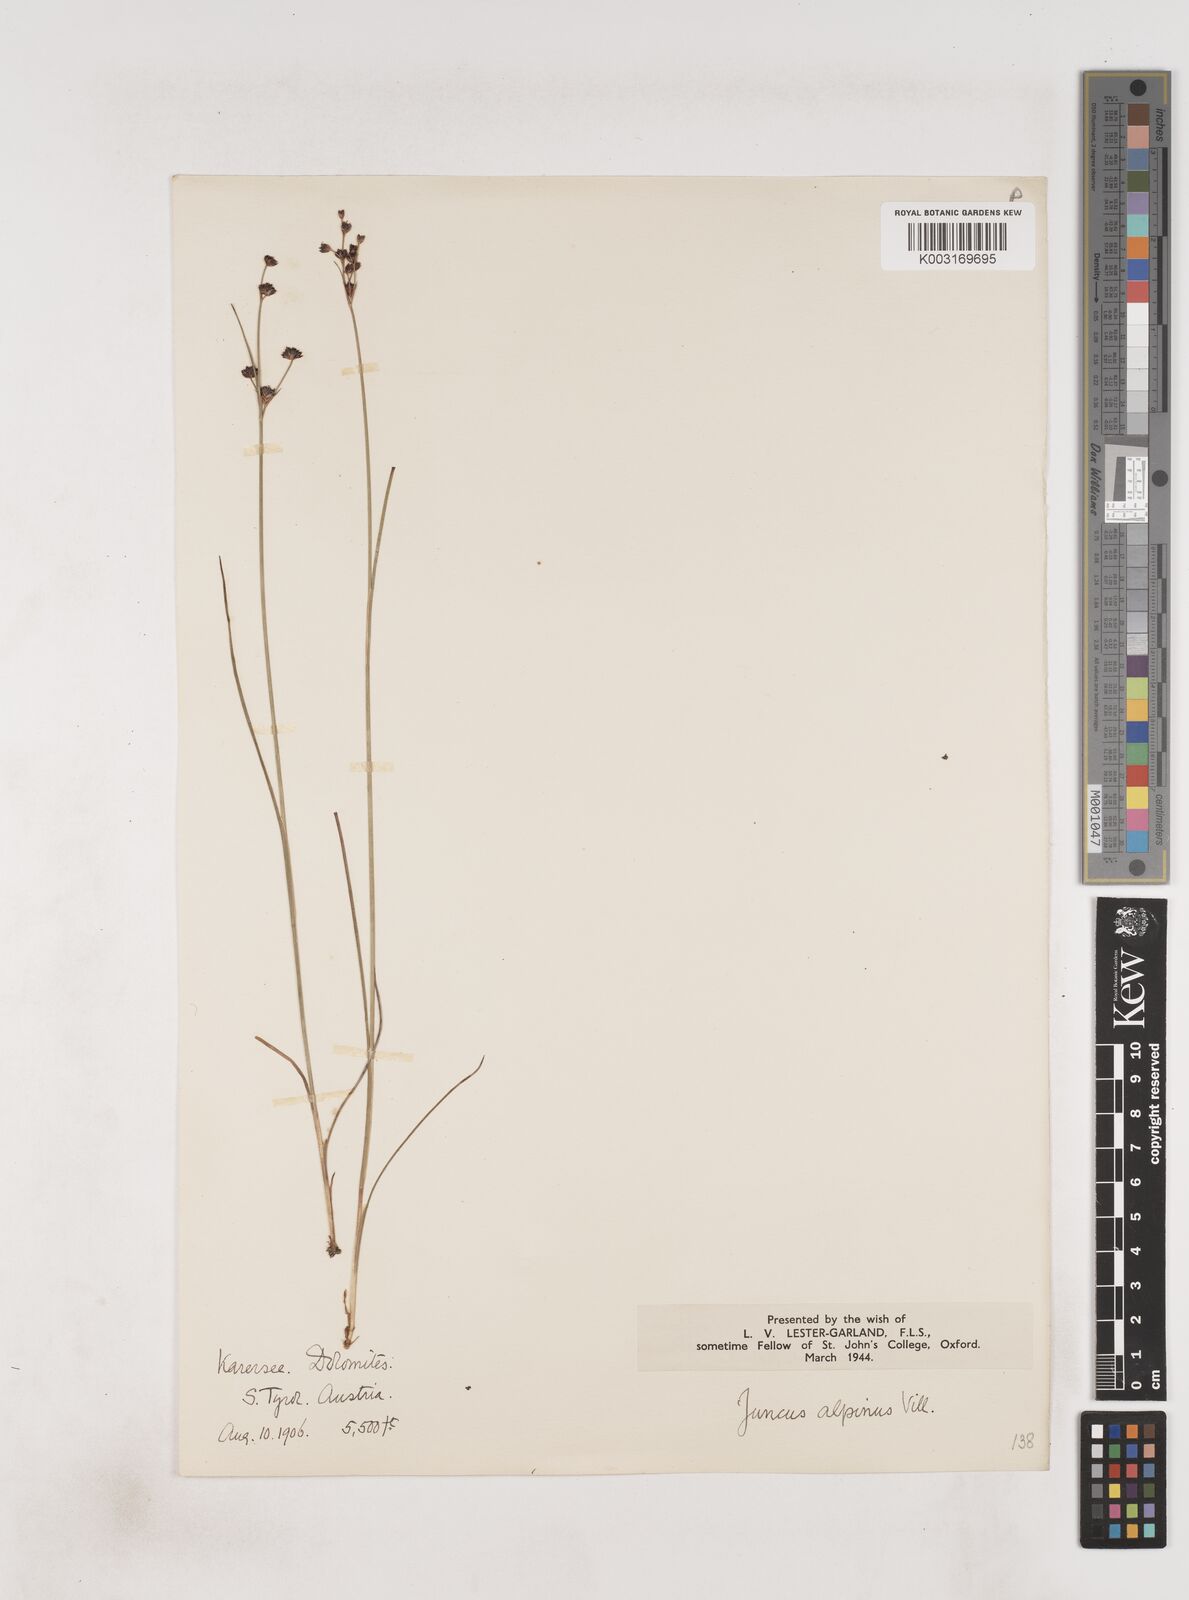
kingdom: Plantae
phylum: Tracheophyta
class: Liliopsida
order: Poales
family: Juncaceae
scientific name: Juncaceae
